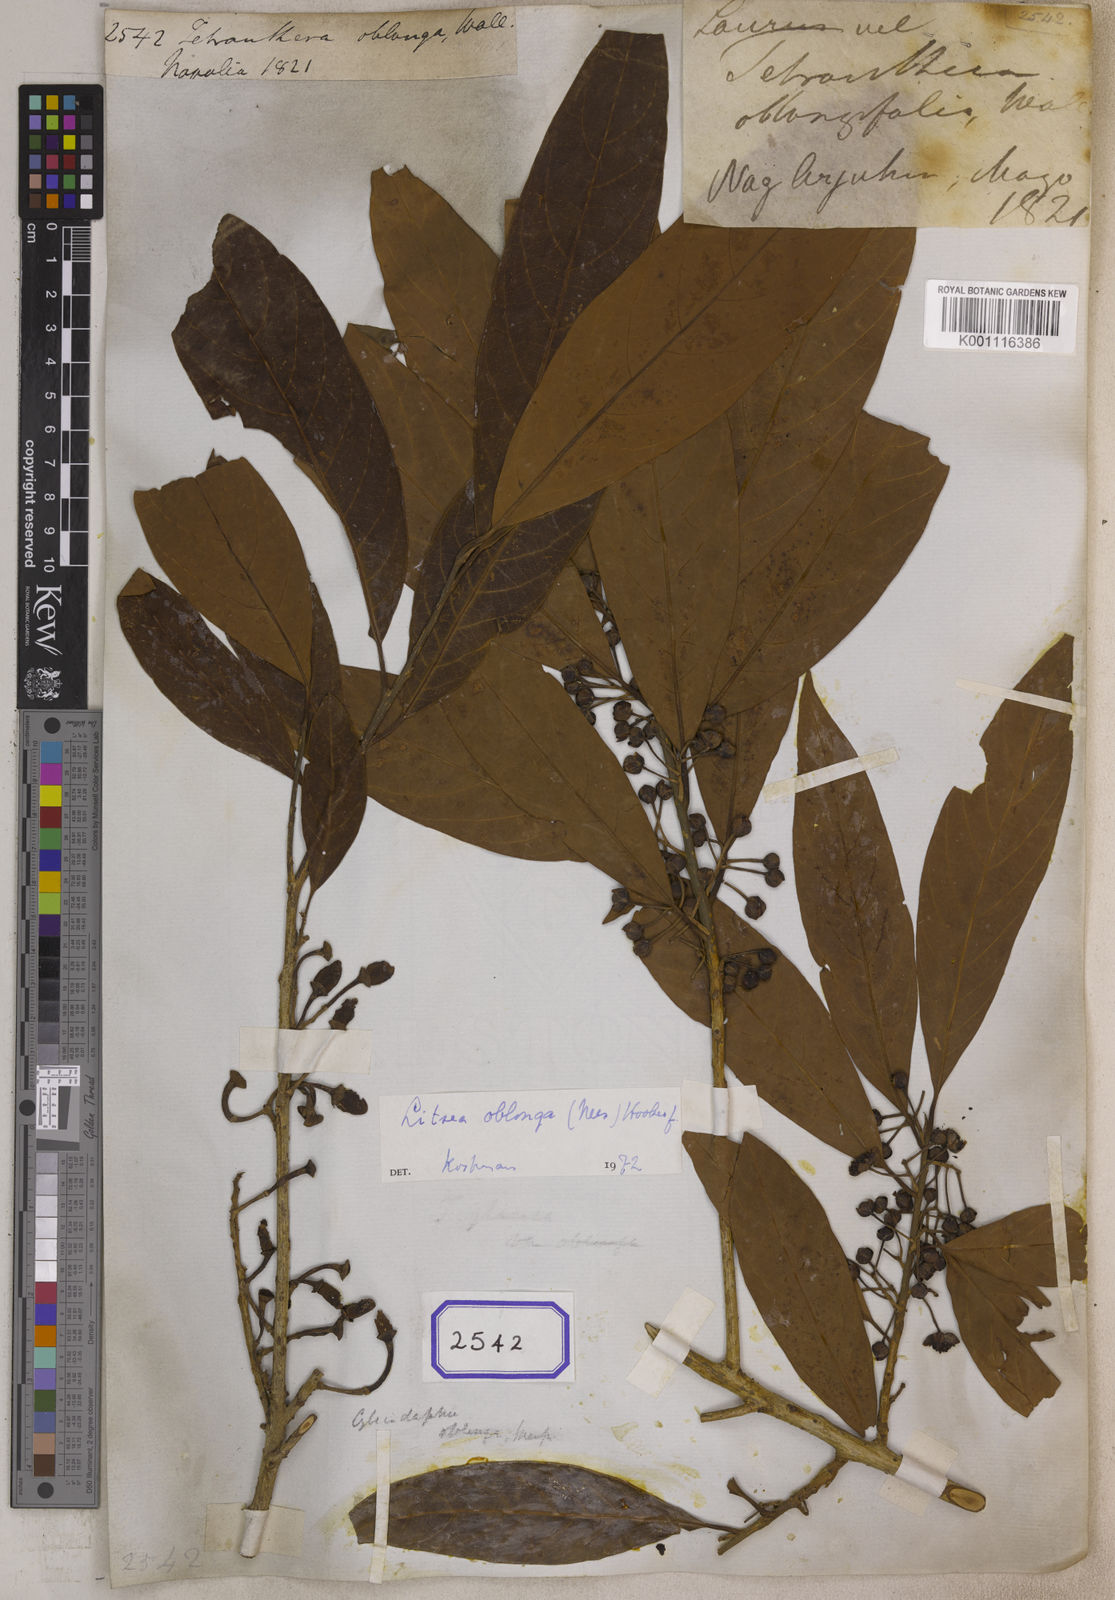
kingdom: Plantae
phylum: Tracheophyta
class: Magnoliopsida
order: Laurales
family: Lauraceae
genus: Litsea
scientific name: Litsea doshia
